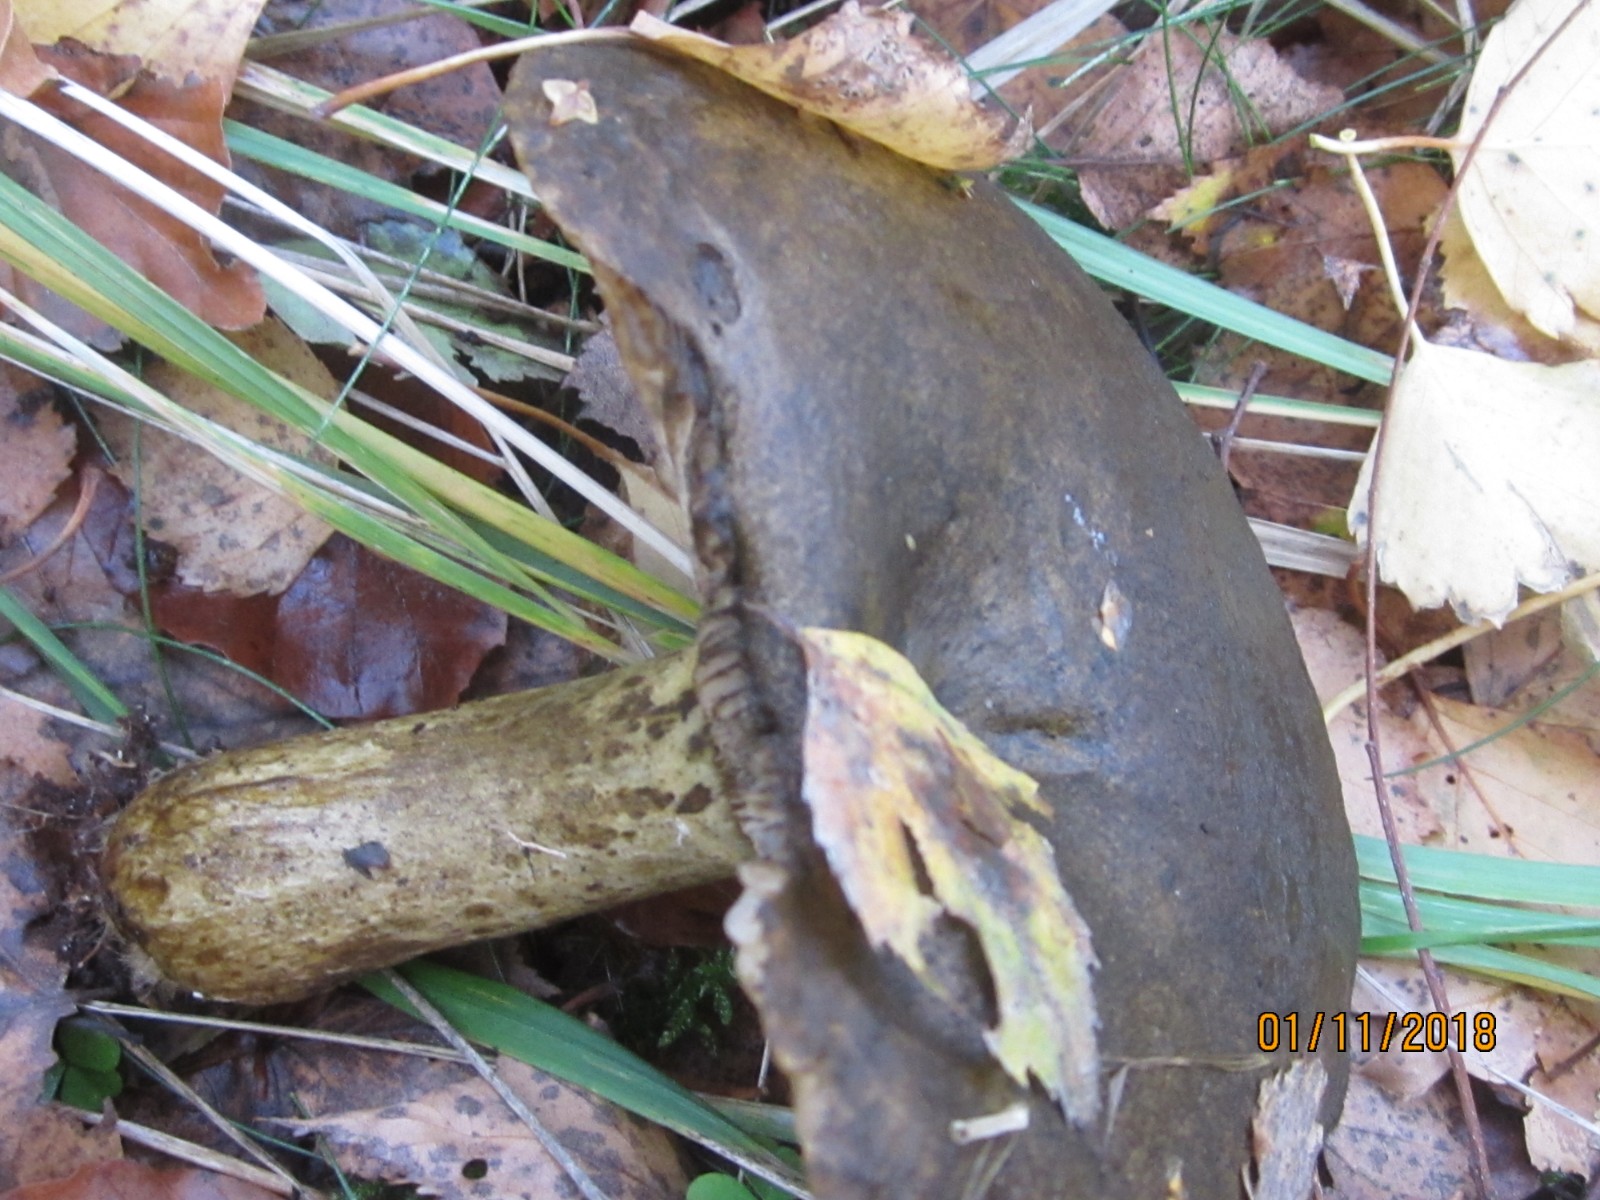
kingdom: Fungi
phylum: Basidiomycota
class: Agaricomycetes
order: Russulales
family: Russulaceae
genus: Lactarius
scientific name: Lactarius necator
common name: manddraber-mælkehat
